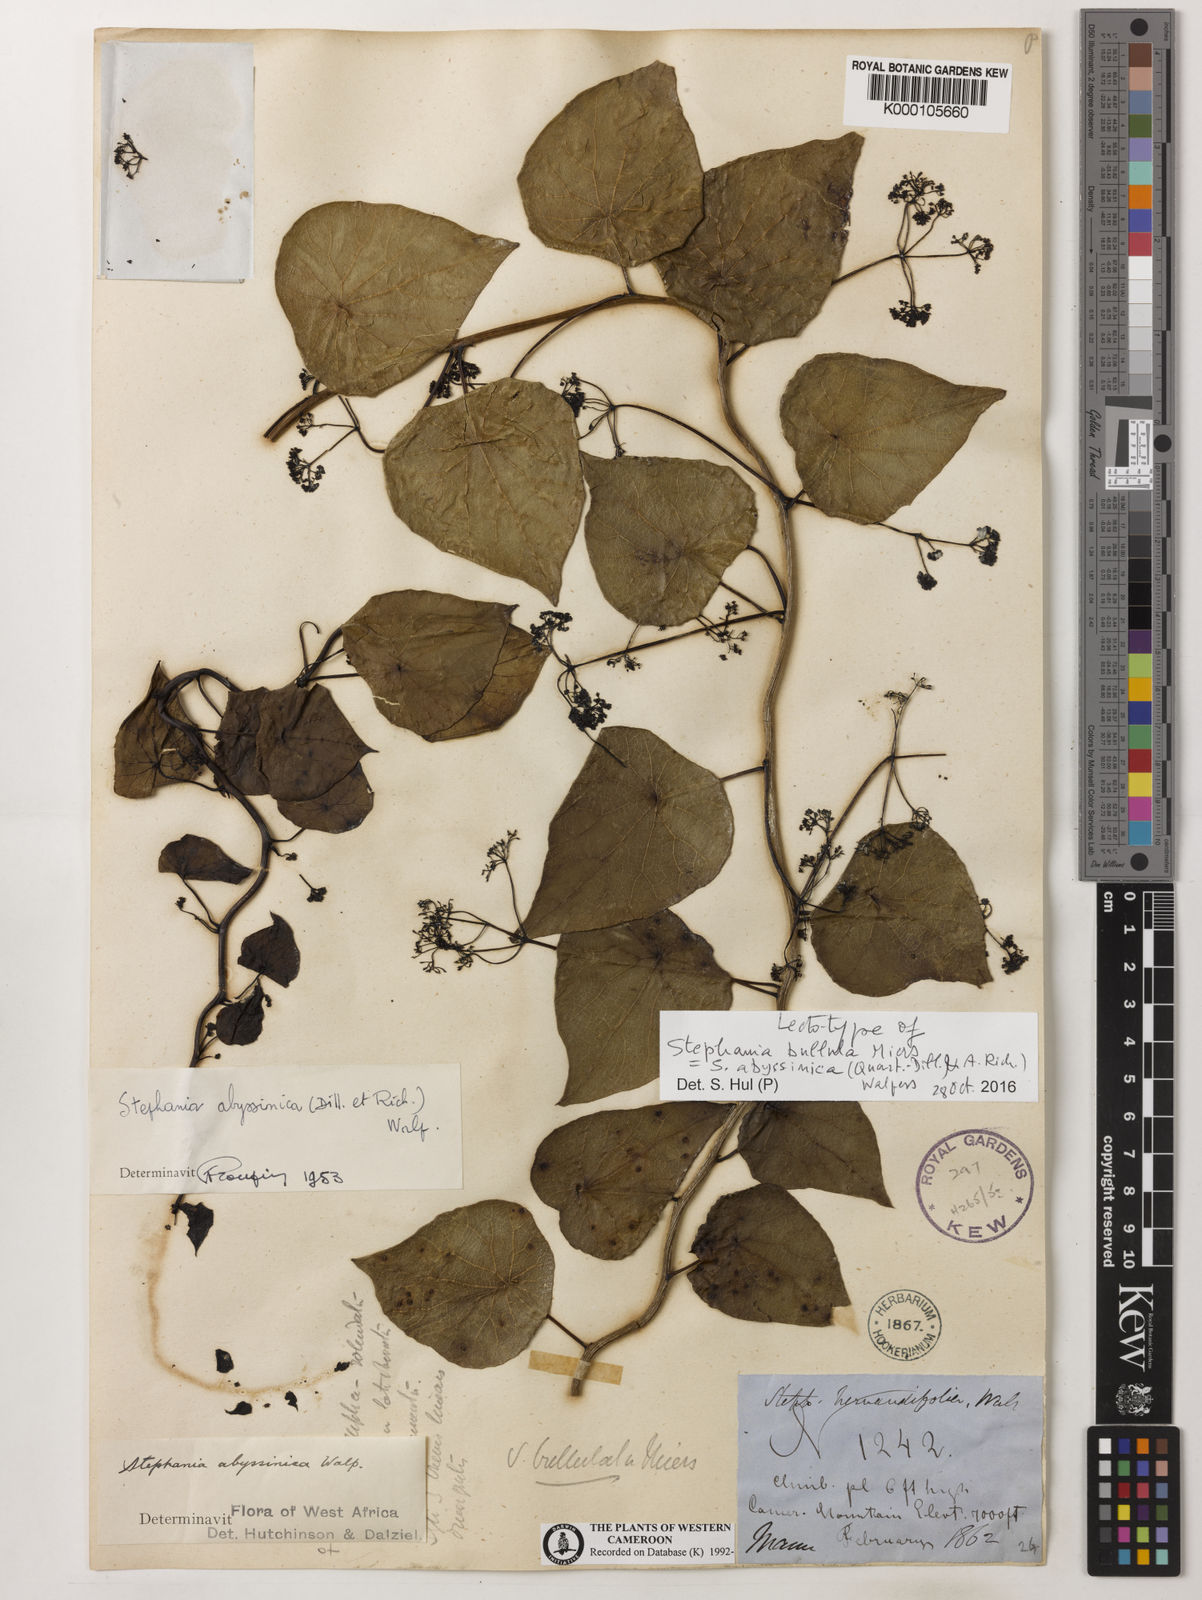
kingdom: Plantae
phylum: Tracheophyta
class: Magnoliopsida
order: Ranunculales
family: Menispermaceae
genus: Stephania
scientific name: Stephania abyssinica
